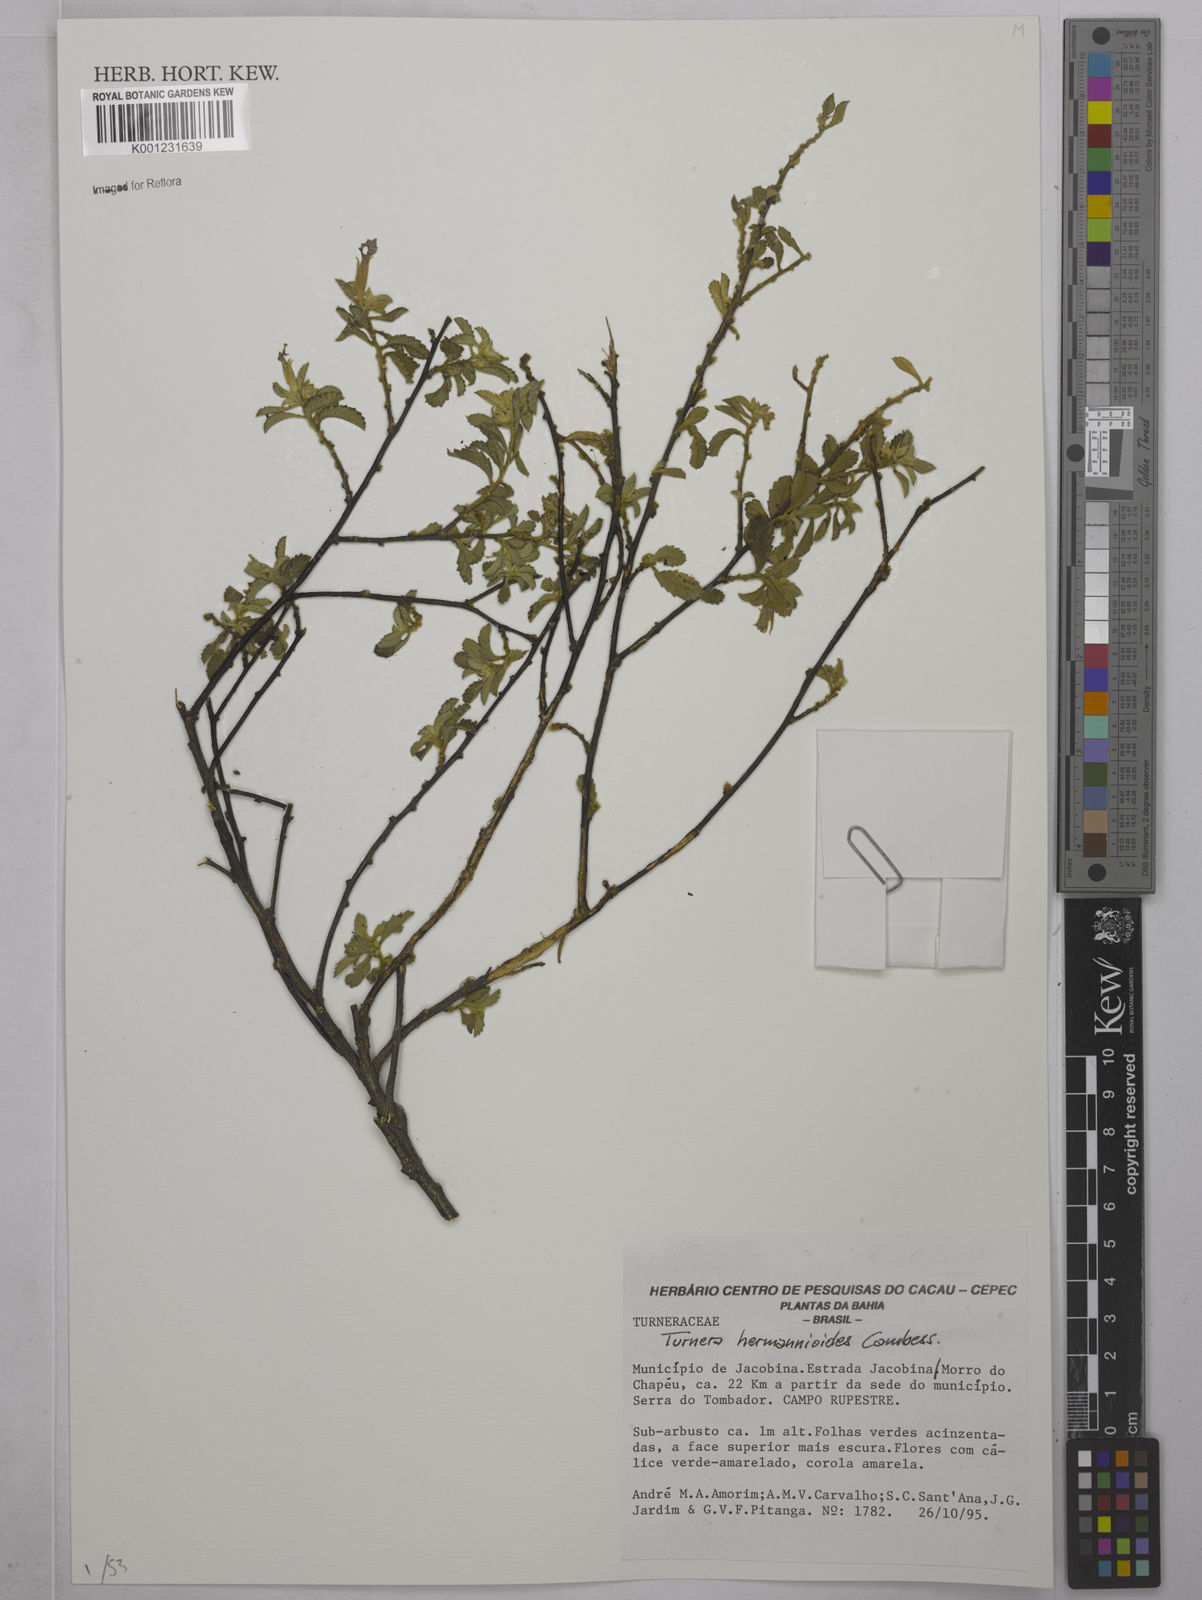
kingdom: Plantae
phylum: Tracheophyta
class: Magnoliopsida
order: Malpighiales
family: Turneraceae
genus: Turnera
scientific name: Turnera hermannioides
